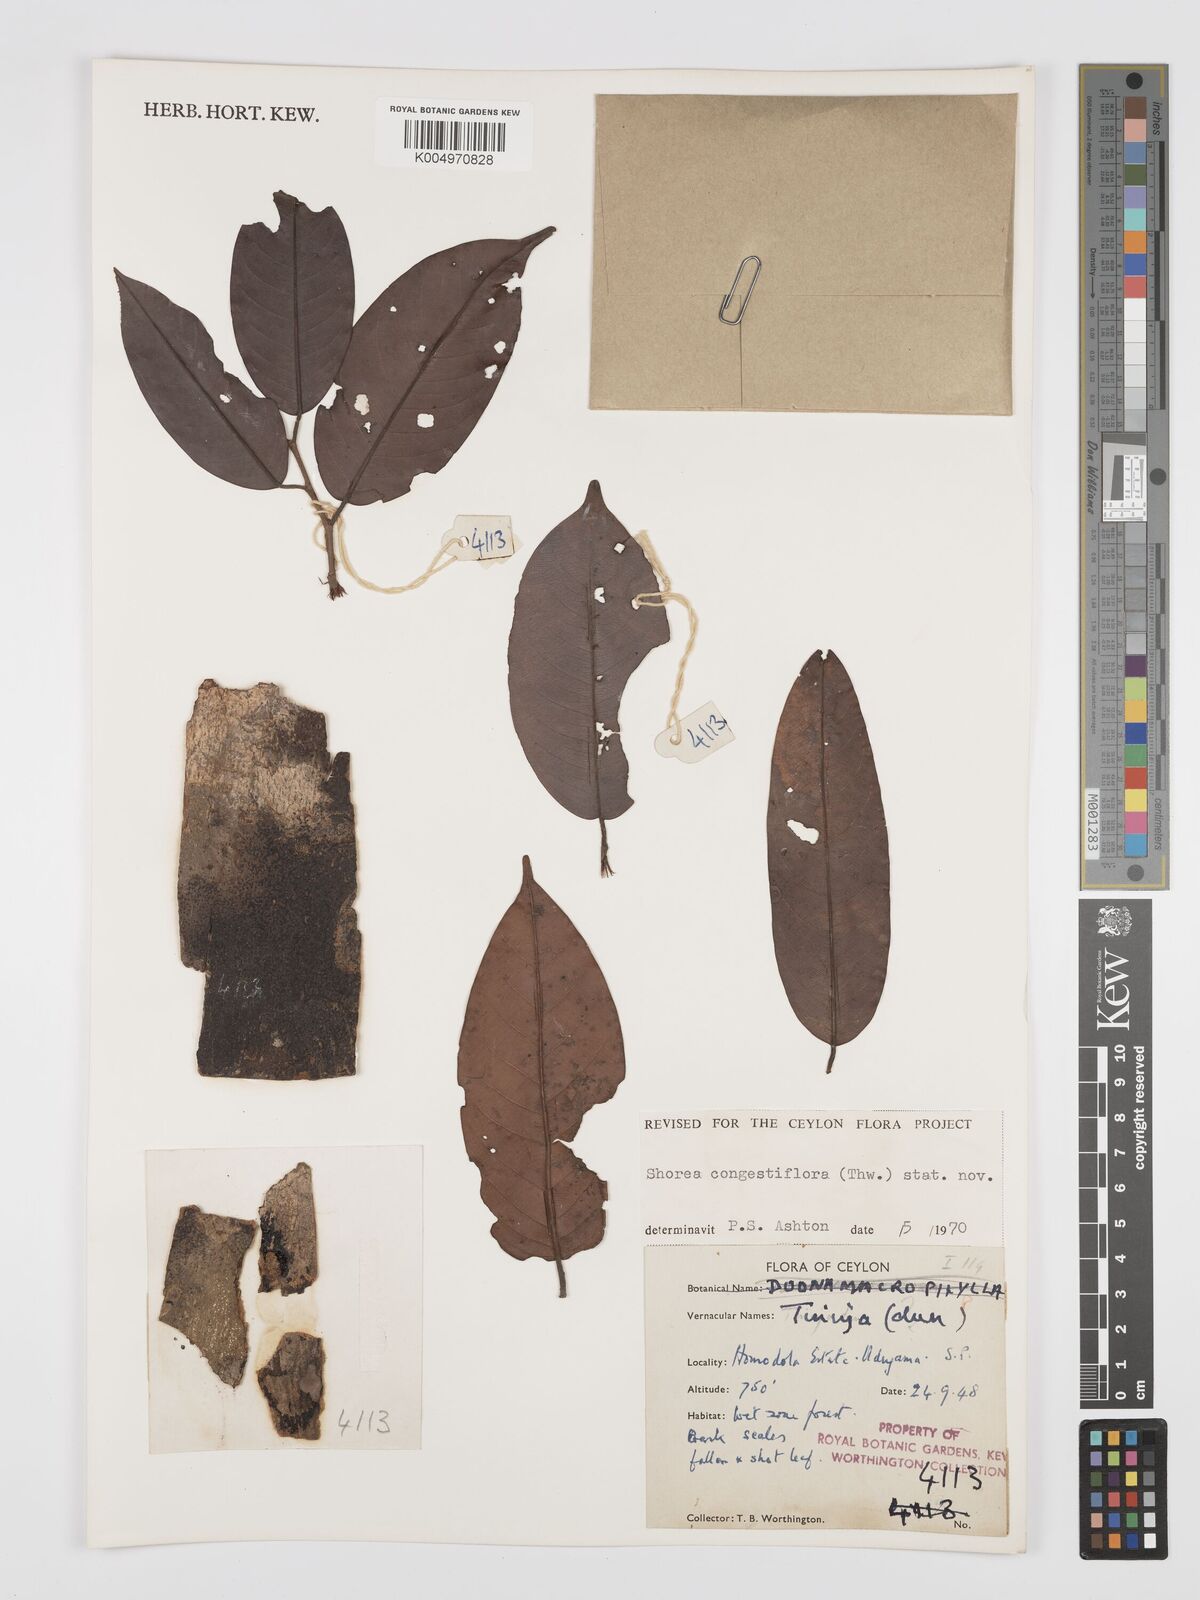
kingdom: Plantae
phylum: Tracheophyta
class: Magnoliopsida
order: Malvales
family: Dipterocarpaceae
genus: Doona
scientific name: Doona congestiflora
